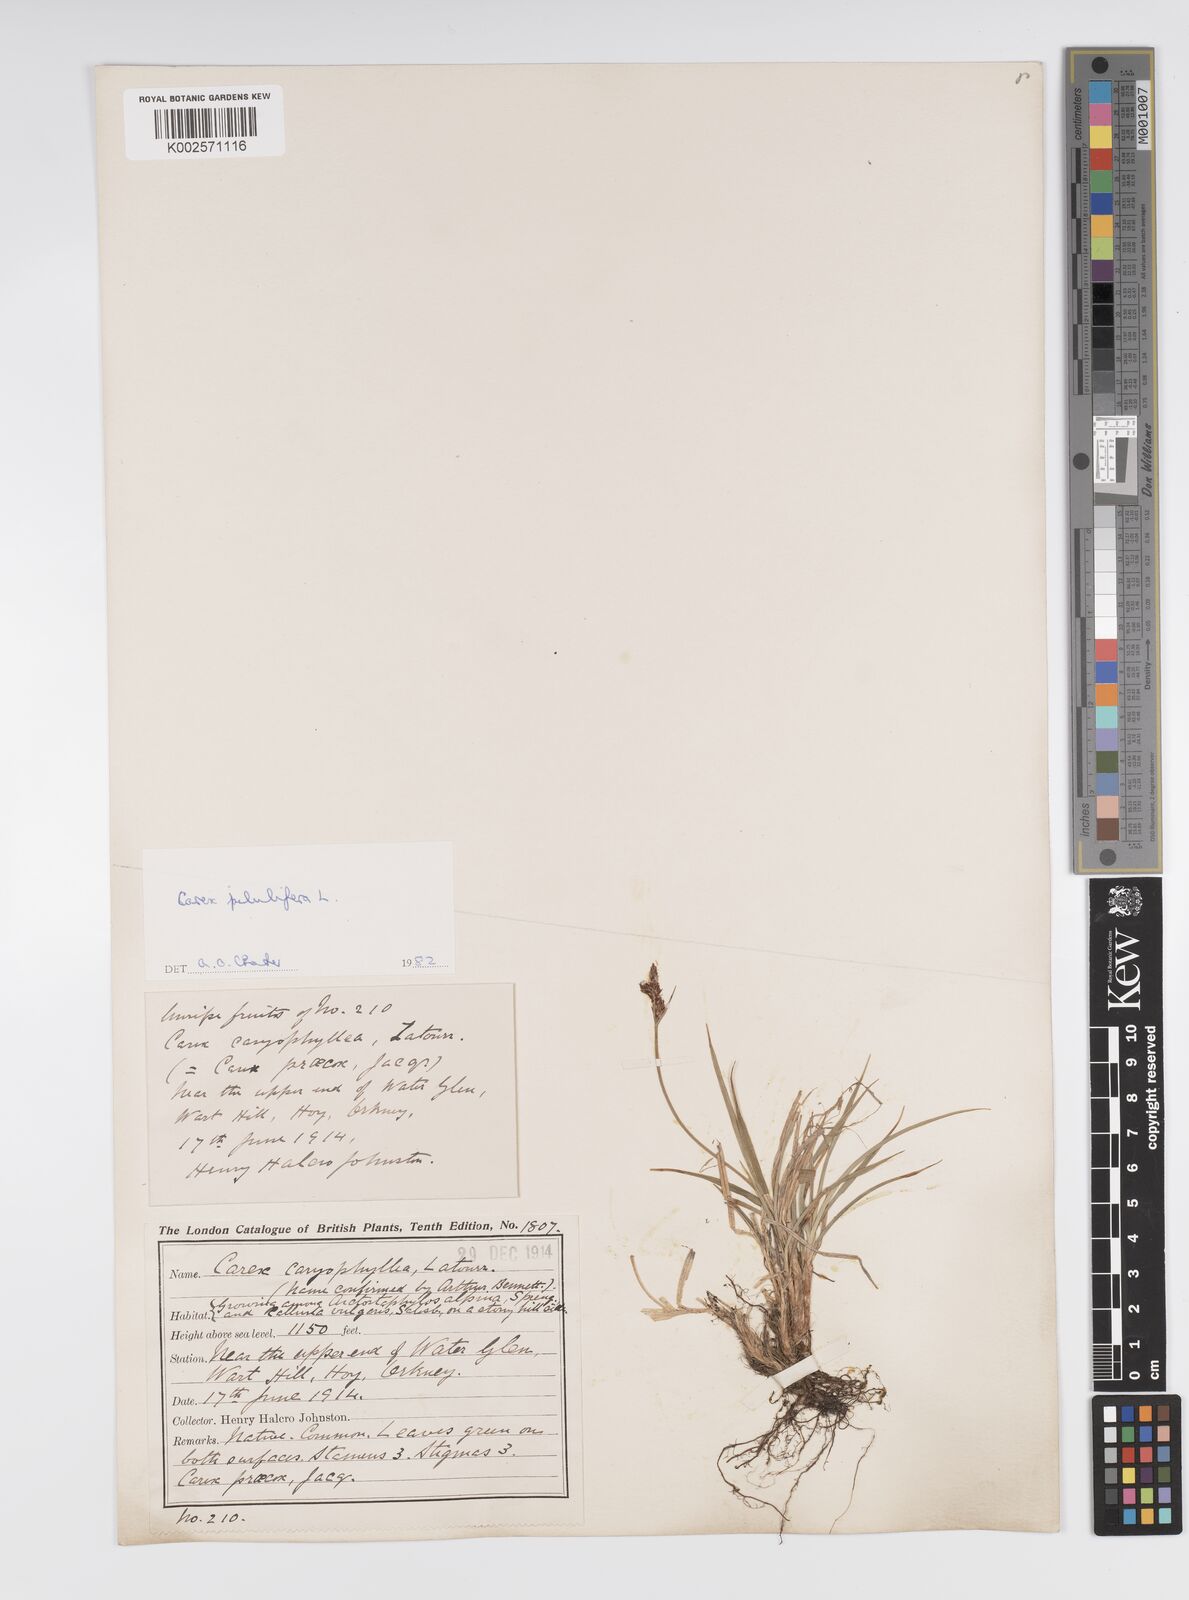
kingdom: Plantae
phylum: Tracheophyta
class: Liliopsida
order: Poales
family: Cyperaceae
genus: Carex
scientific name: Carex pilulifera
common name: Pill sedge
